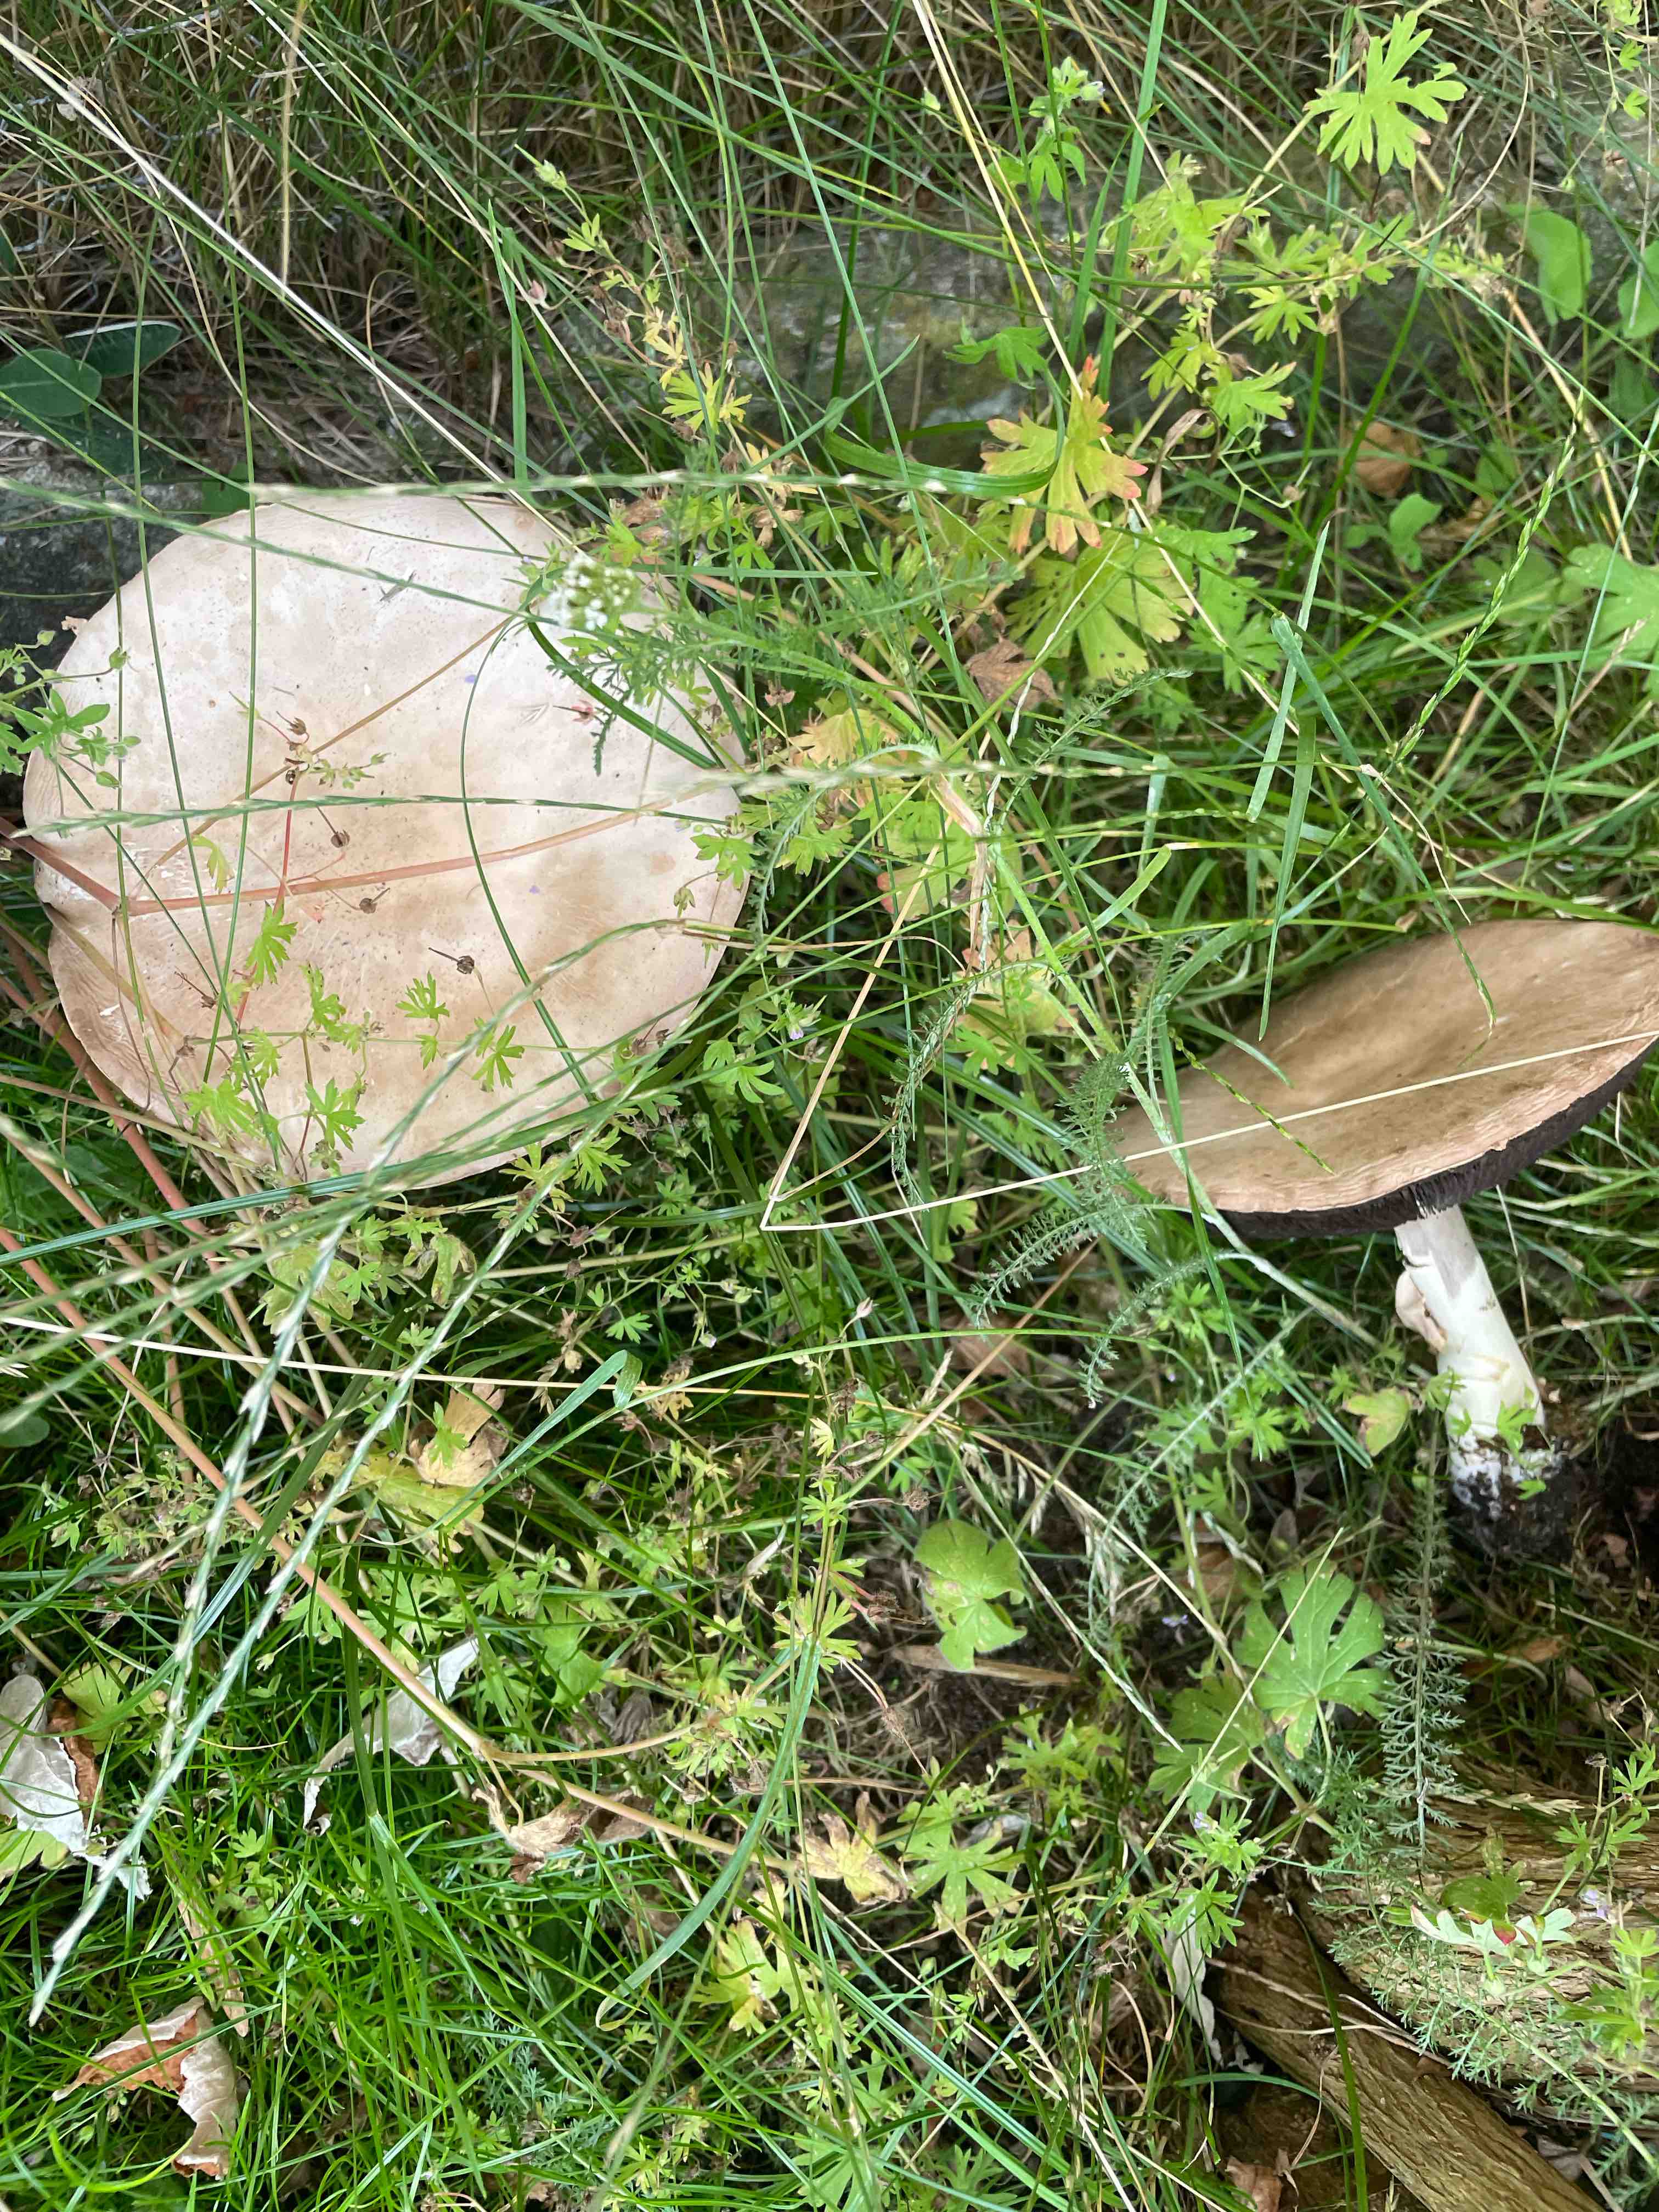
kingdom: Fungi
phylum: Basidiomycota
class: Agaricomycetes
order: Agaricales
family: Agaricaceae
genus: Agaricus
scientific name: Agaricus
